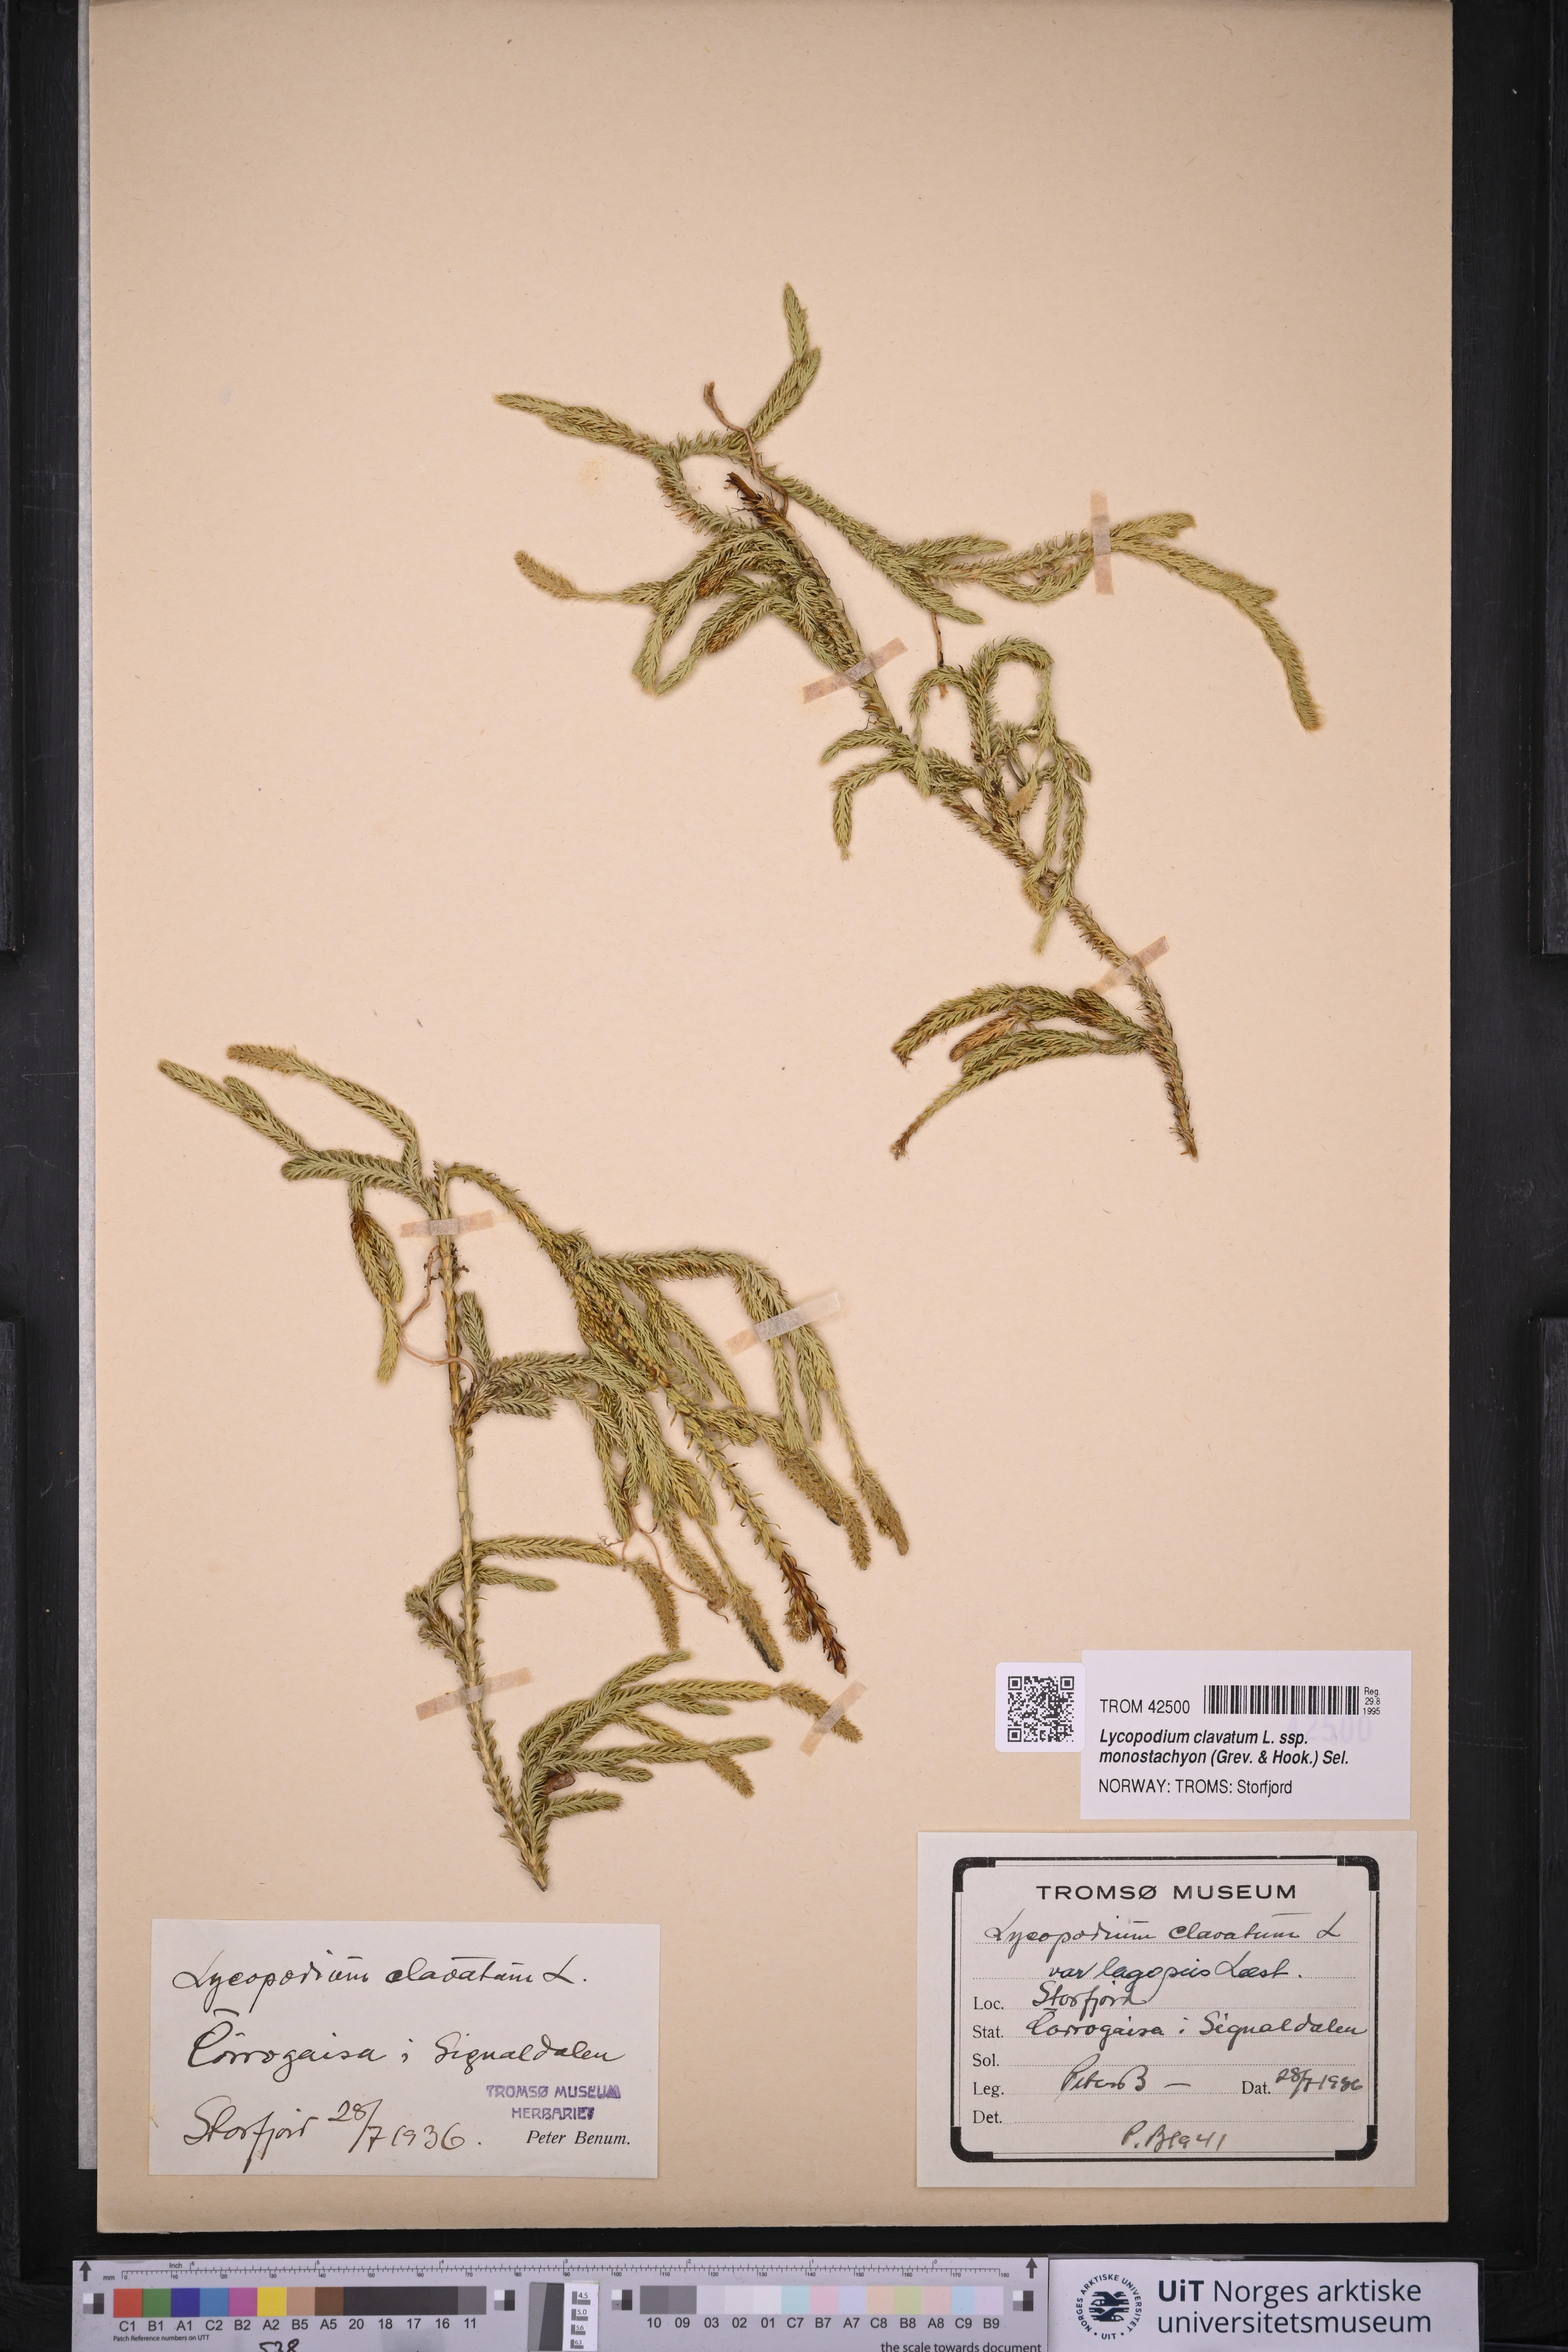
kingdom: Plantae
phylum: Tracheophyta
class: Lycopodiopsida
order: Lycopodiales
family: Lycopodiaceae
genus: Lycopodium
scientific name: Lycopodium lagopus
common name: One-cone clubmoss
